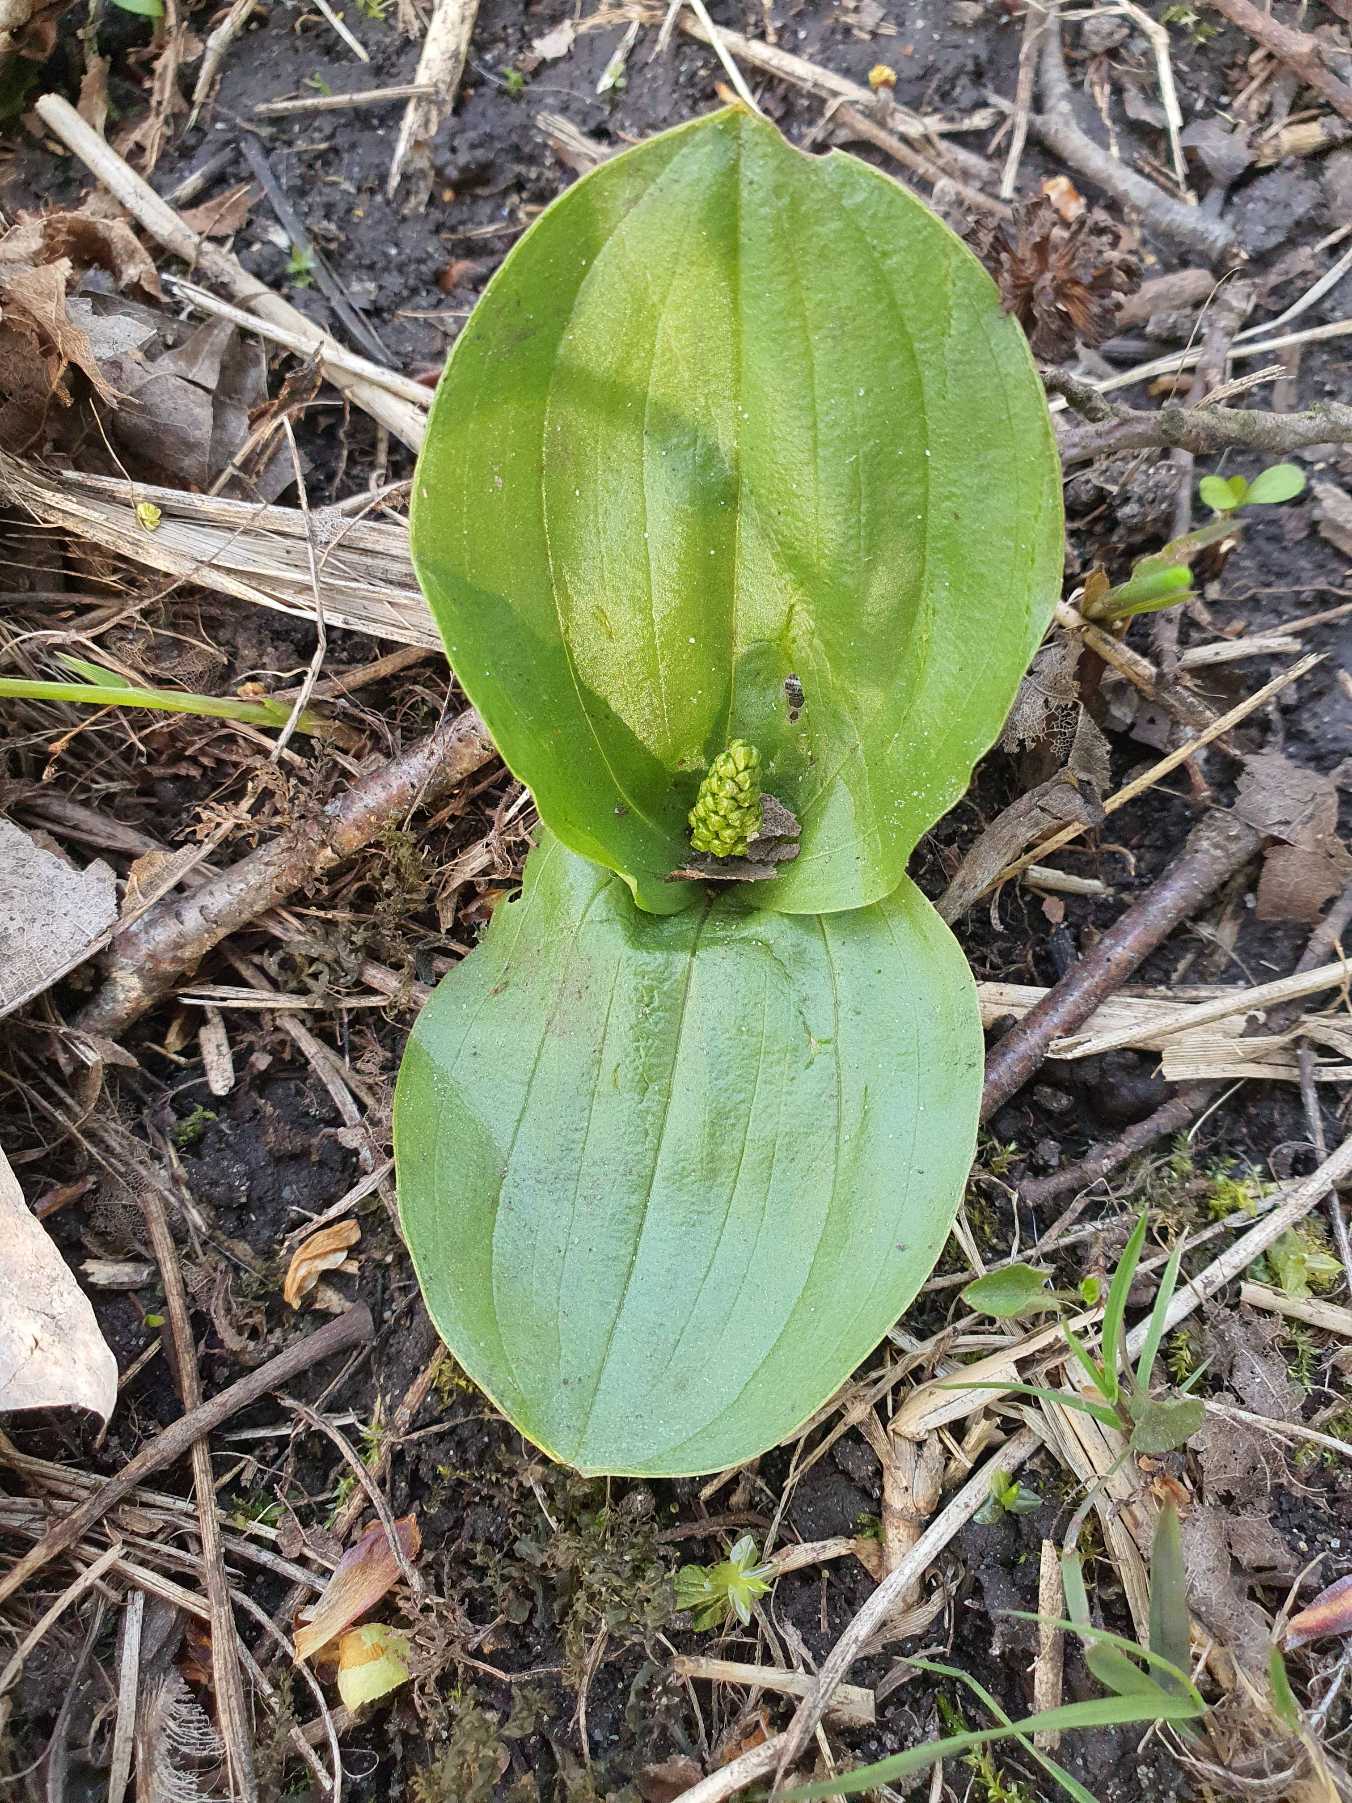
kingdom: Plantae
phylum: Tracheophyta
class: Liliopsida
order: Asparagales
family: Orchidaceae
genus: Neottia
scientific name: Neottia ovata
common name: Ægbladet fliglæbe
